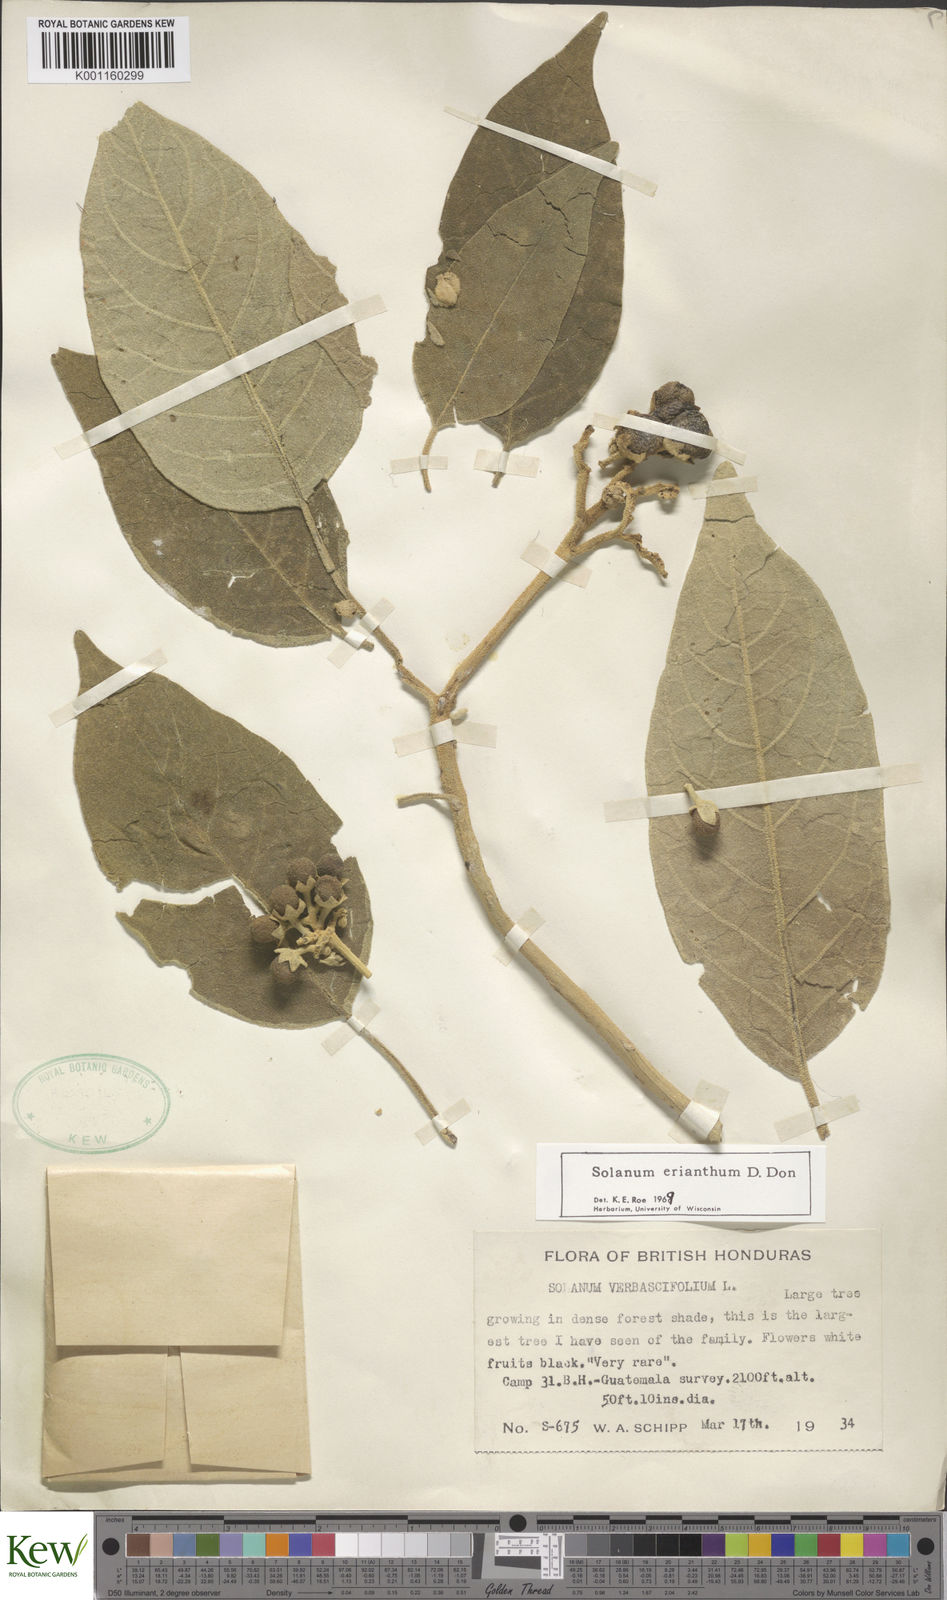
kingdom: Plantae
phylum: Tracheophyta
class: Magnoliopsida
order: Solanales
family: Solanaceae
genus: Solanum
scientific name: Solanum erianthum
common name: Tobacco-tree
